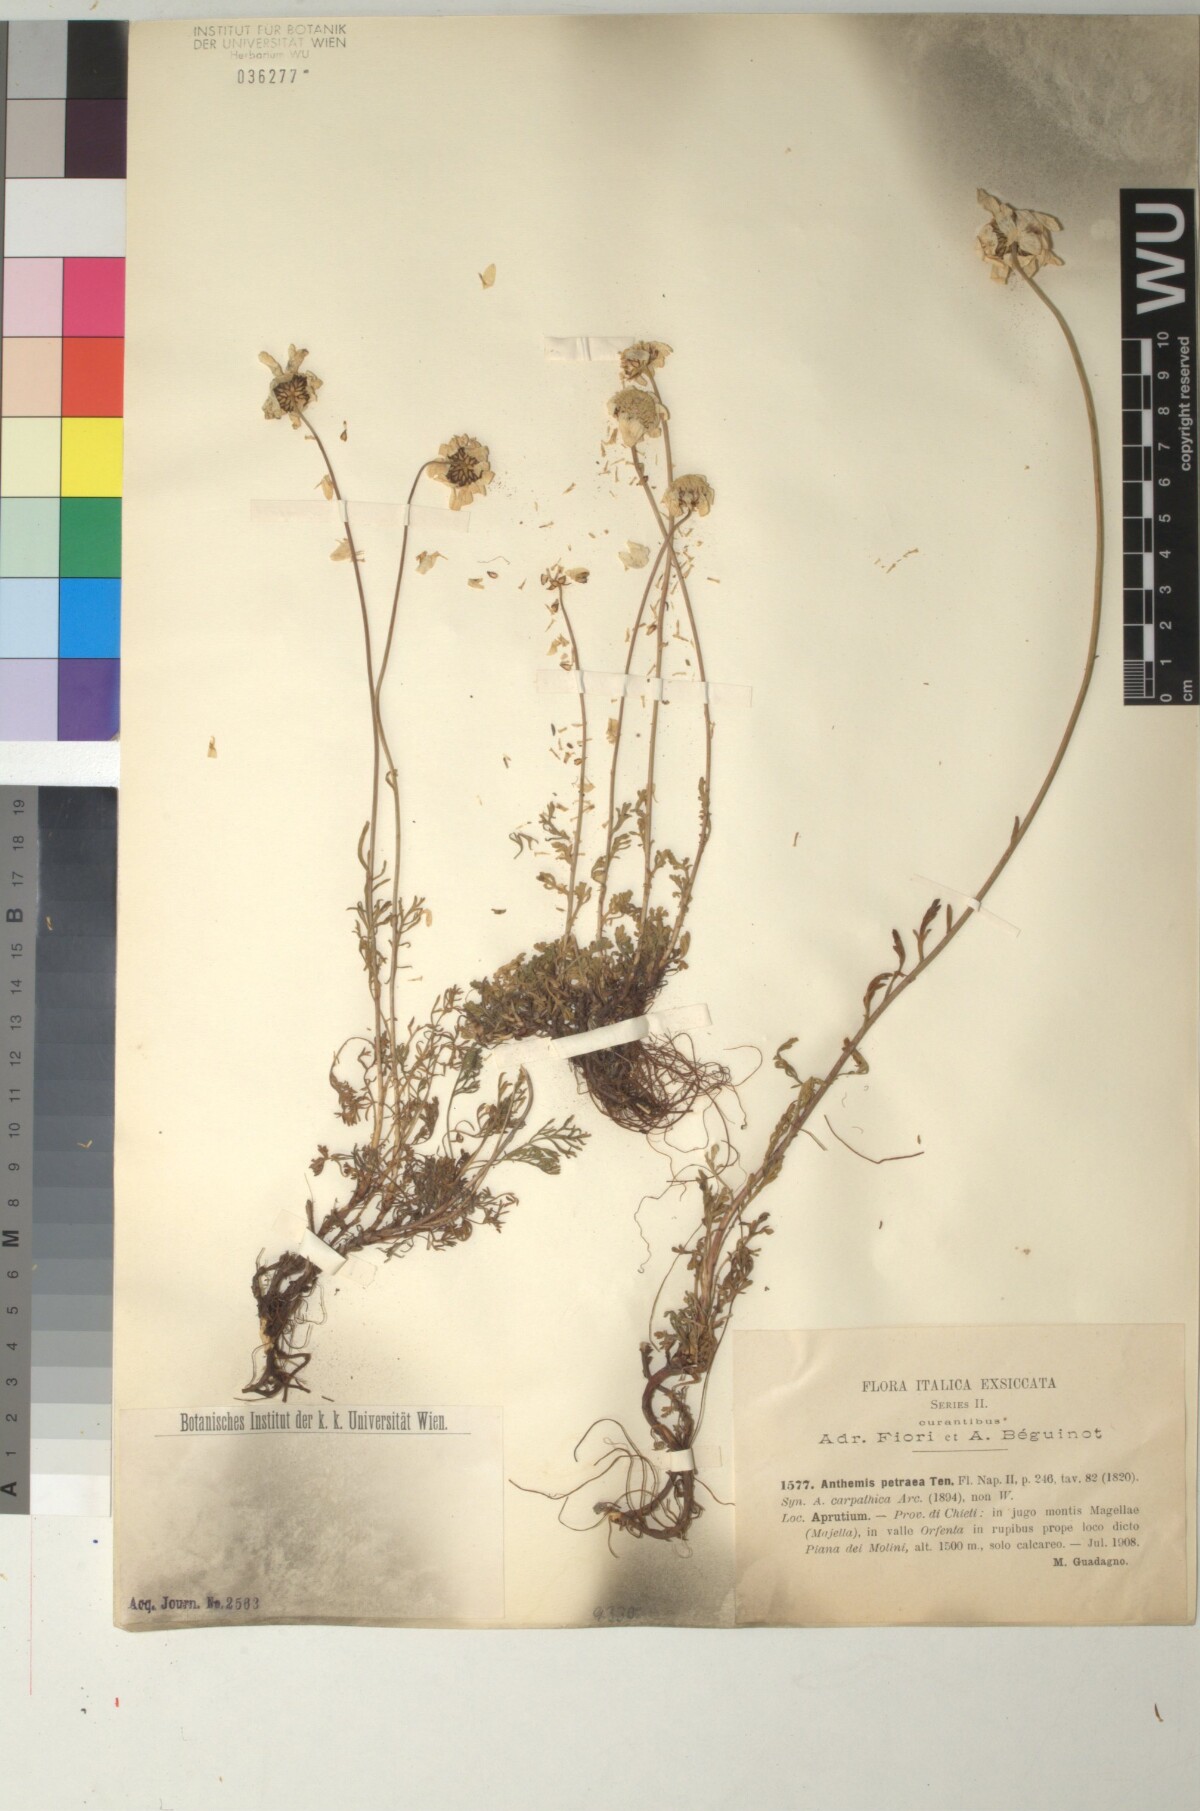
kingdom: Plantae
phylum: Tracheophyta
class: Magnoliopsida
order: Asterales
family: Asteraceae
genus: Anthemis
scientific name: Anthemis cretica
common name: Mountain dog-daisy
